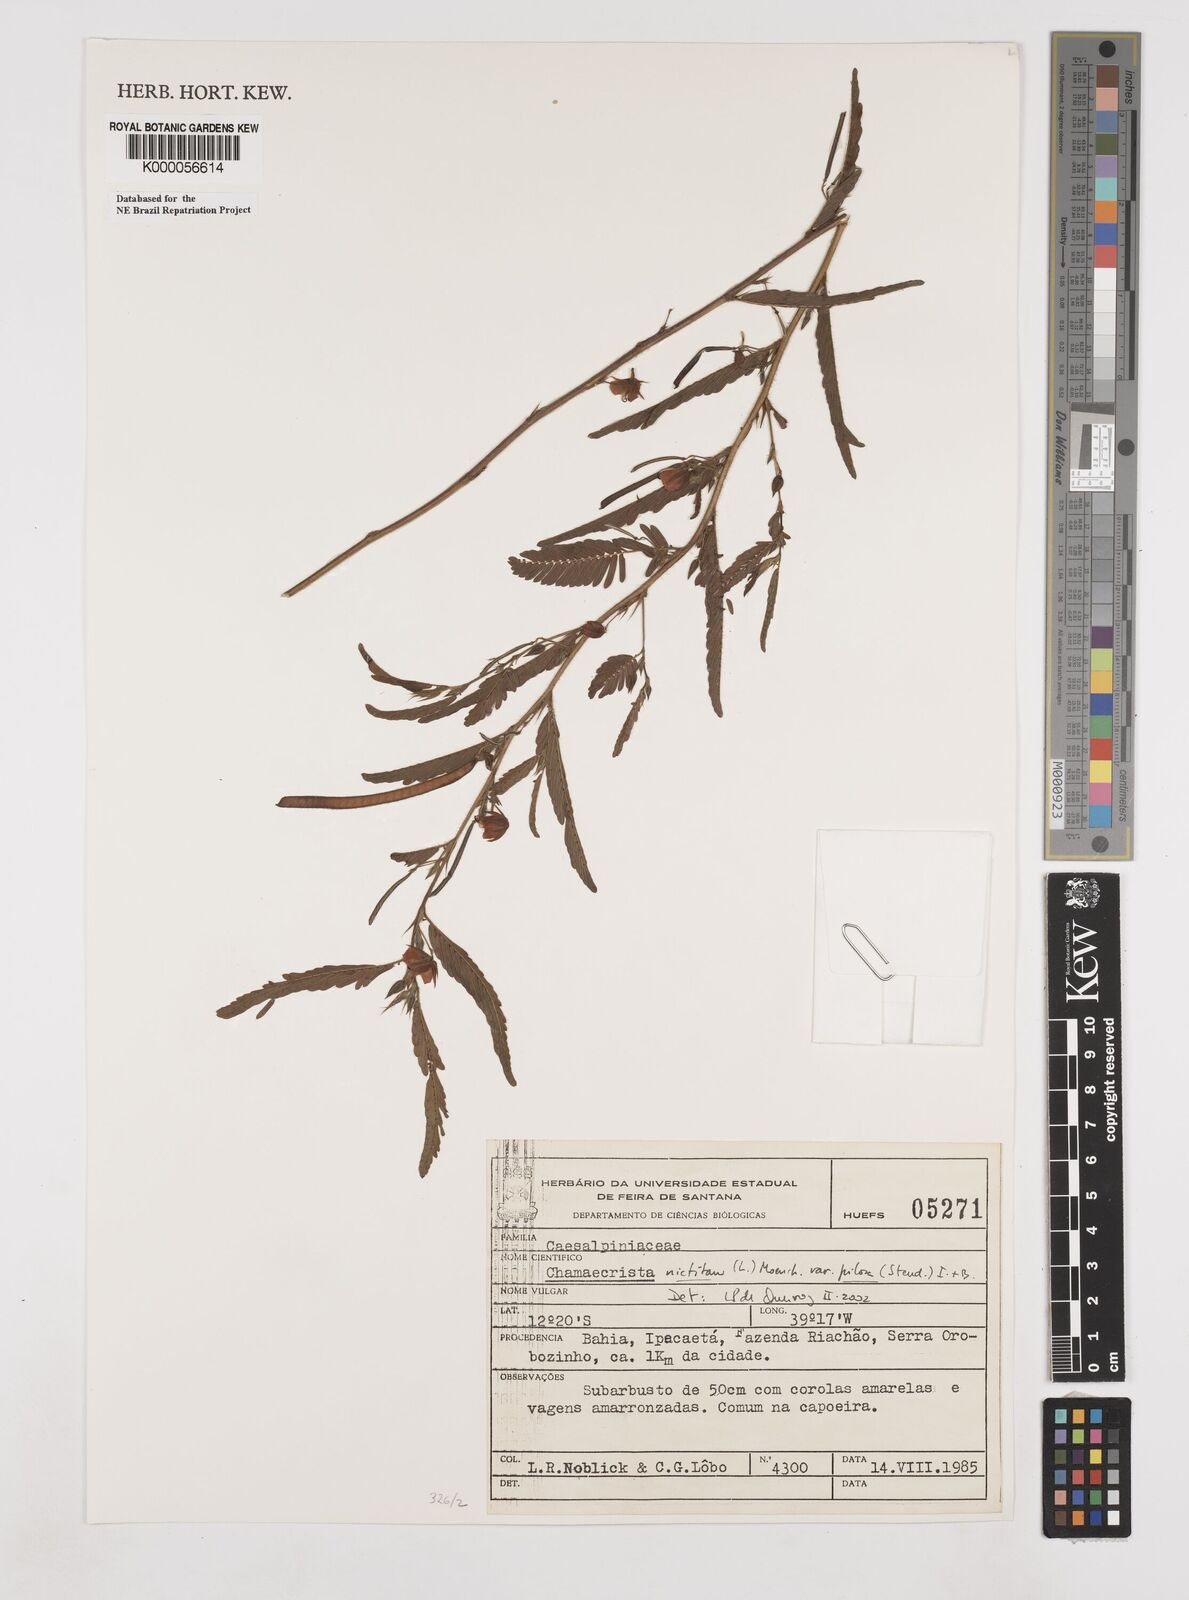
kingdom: Plantae
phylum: Tracheophyta
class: Magnoliopsida
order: Fabales
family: Fabaceae
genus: Chamaecrista
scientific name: Chamaecrista nictitans
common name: Sensitive cassia
